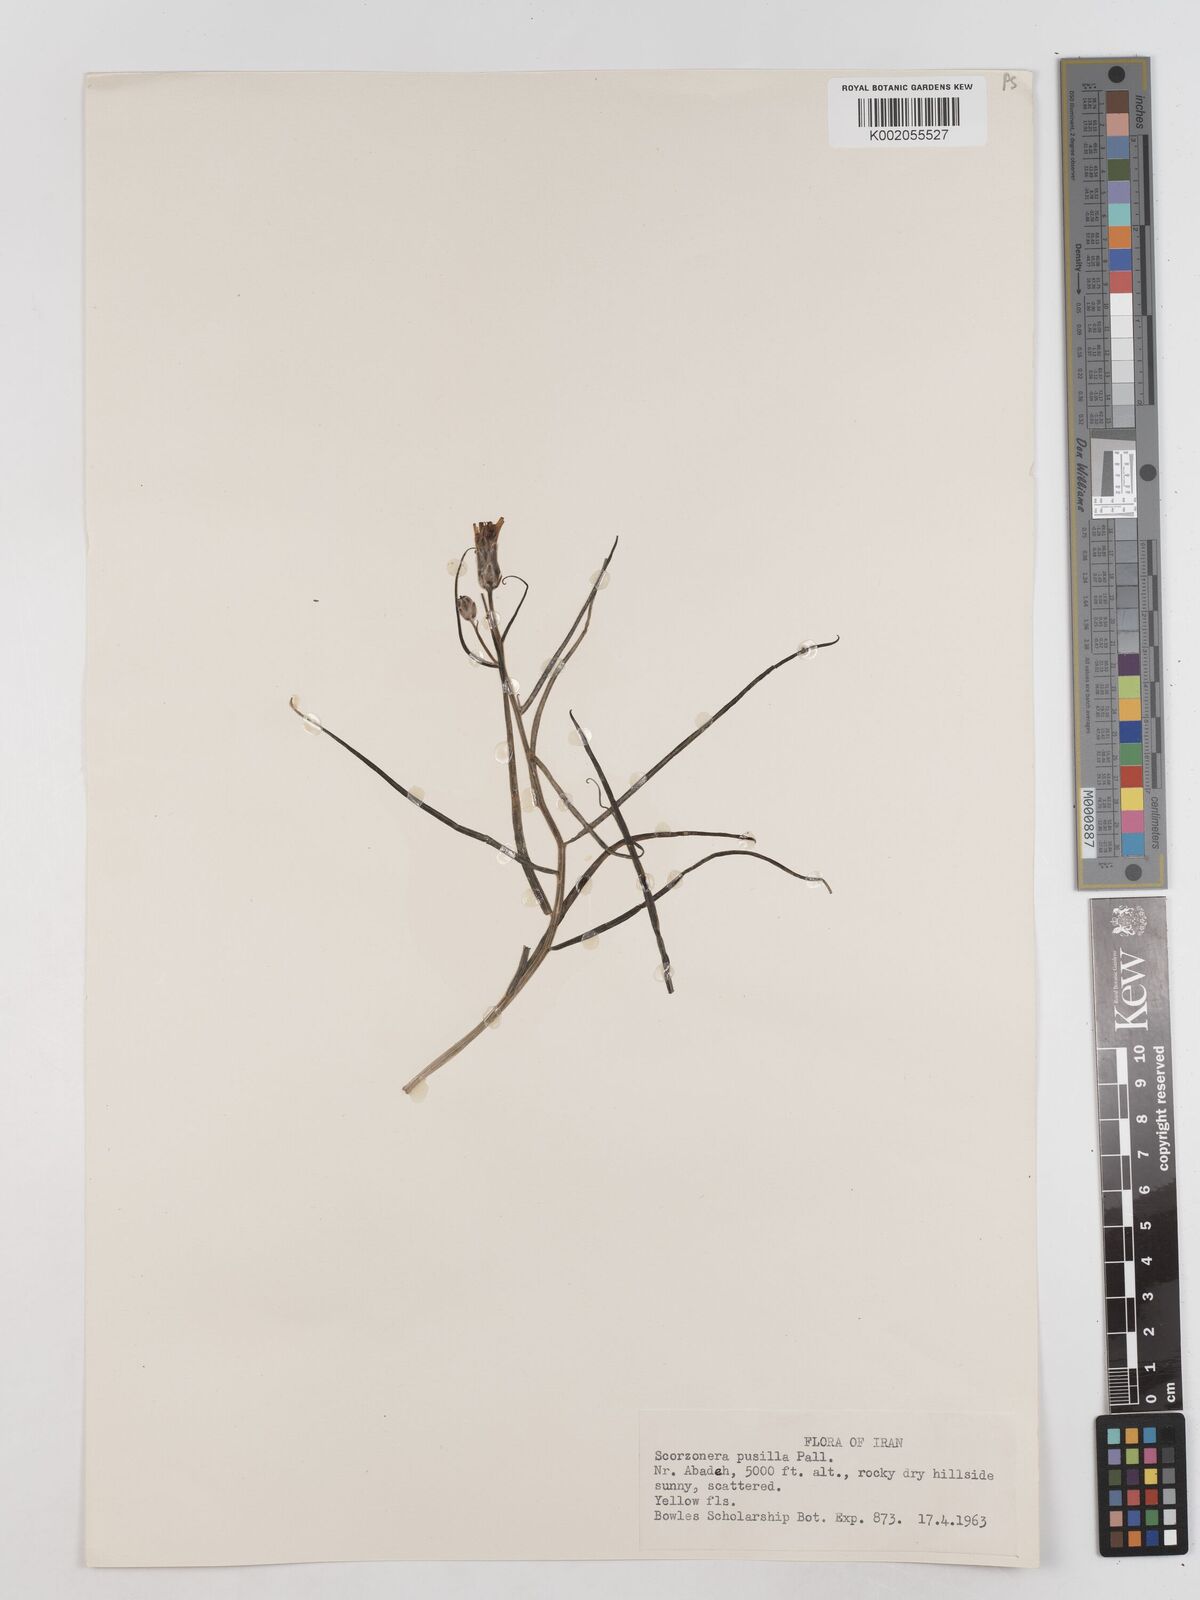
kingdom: Plantae
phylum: Tracheophyta
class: Magnoliopsida
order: Asterales
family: Asteraceae
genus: Takhtajaniantha
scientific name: Takhtajaniantha pusilla
